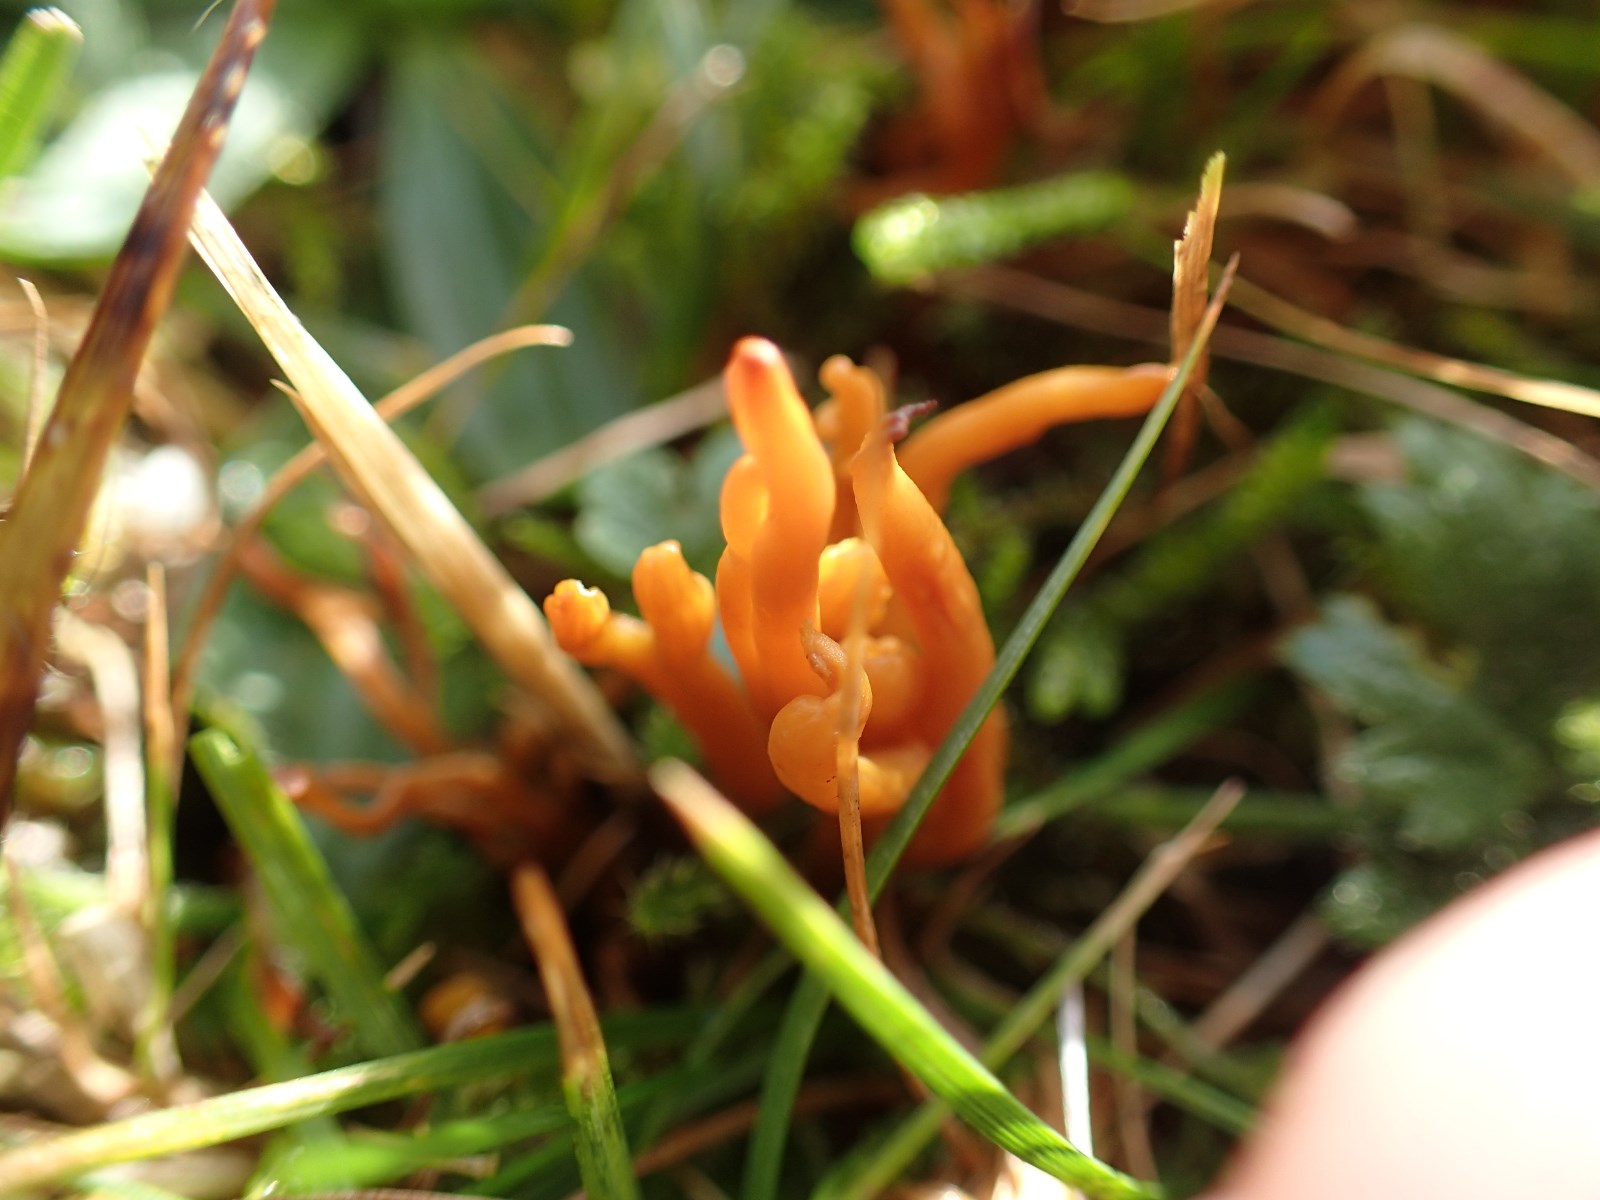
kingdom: Fungi
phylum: Basidiomycota
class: Agaricomycetes
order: Agaricales
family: Clavariaceae
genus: Clavulinopsis
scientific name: Clavulinopsis corniculata
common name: eng-køllesvamp
